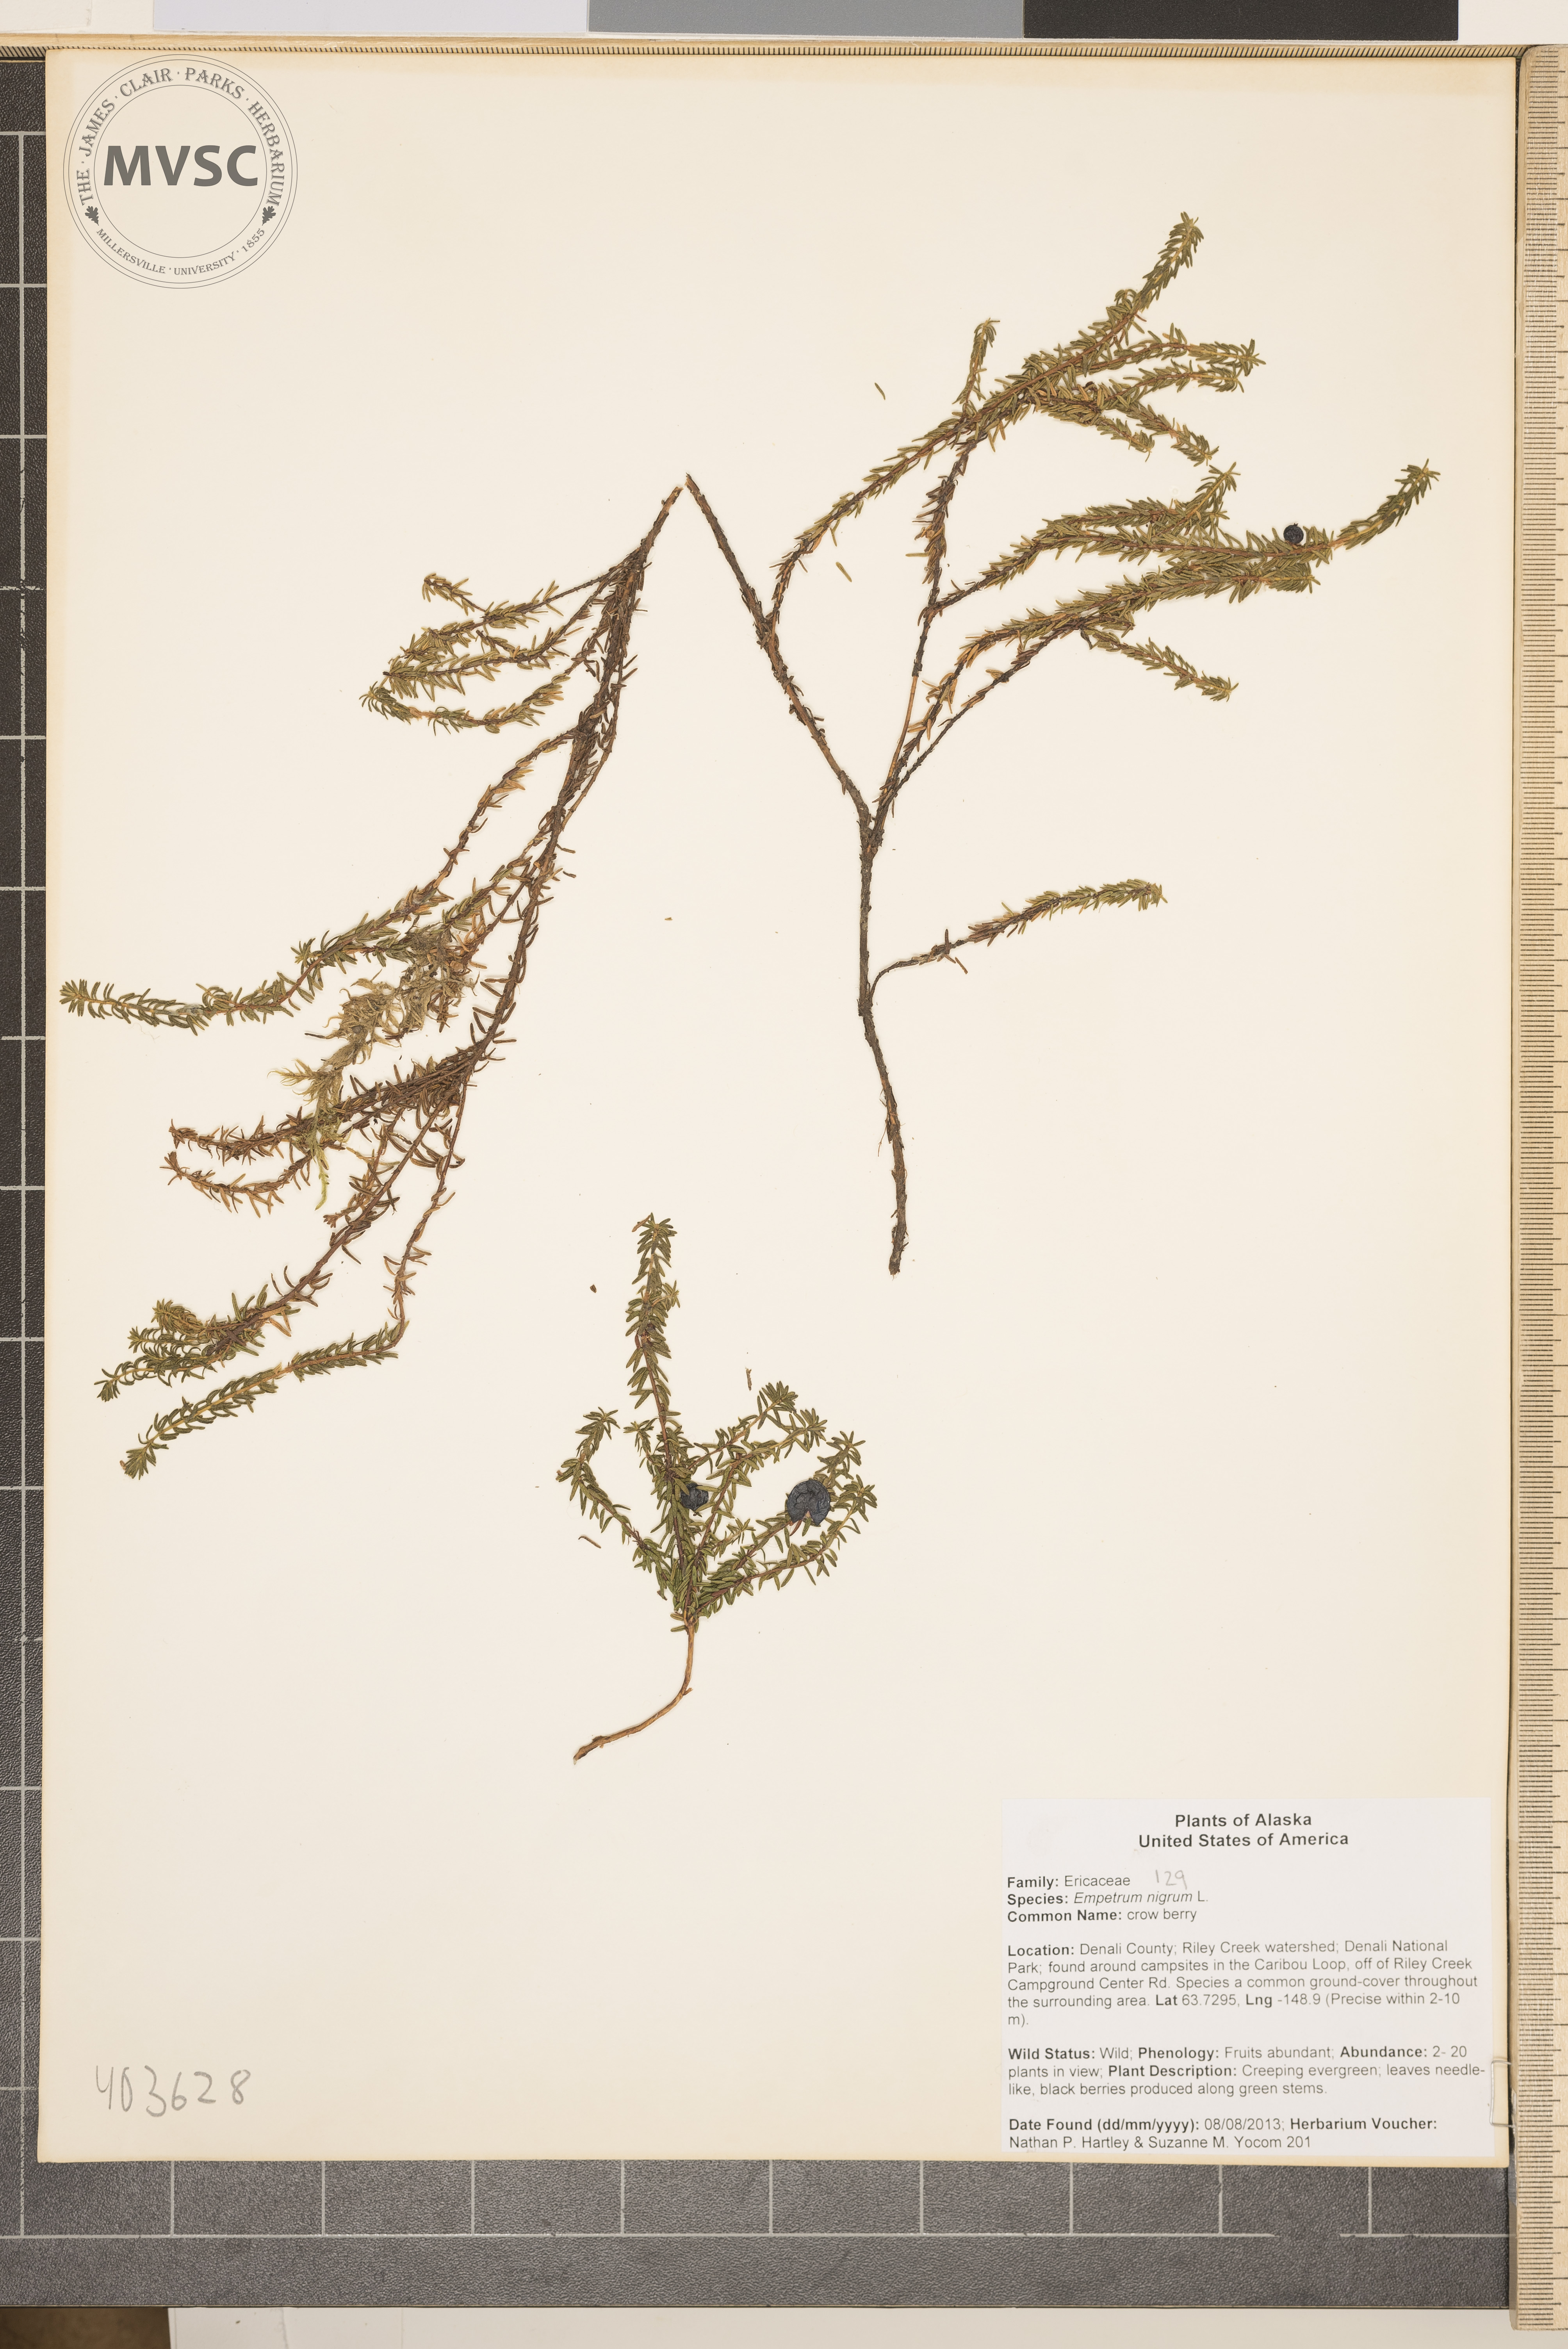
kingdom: Plantae
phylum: Tracheophyta
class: Magnoliopsida
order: Ericales
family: Ericaceae
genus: Empetrum
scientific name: Empetrum nigrum
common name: crowberry
